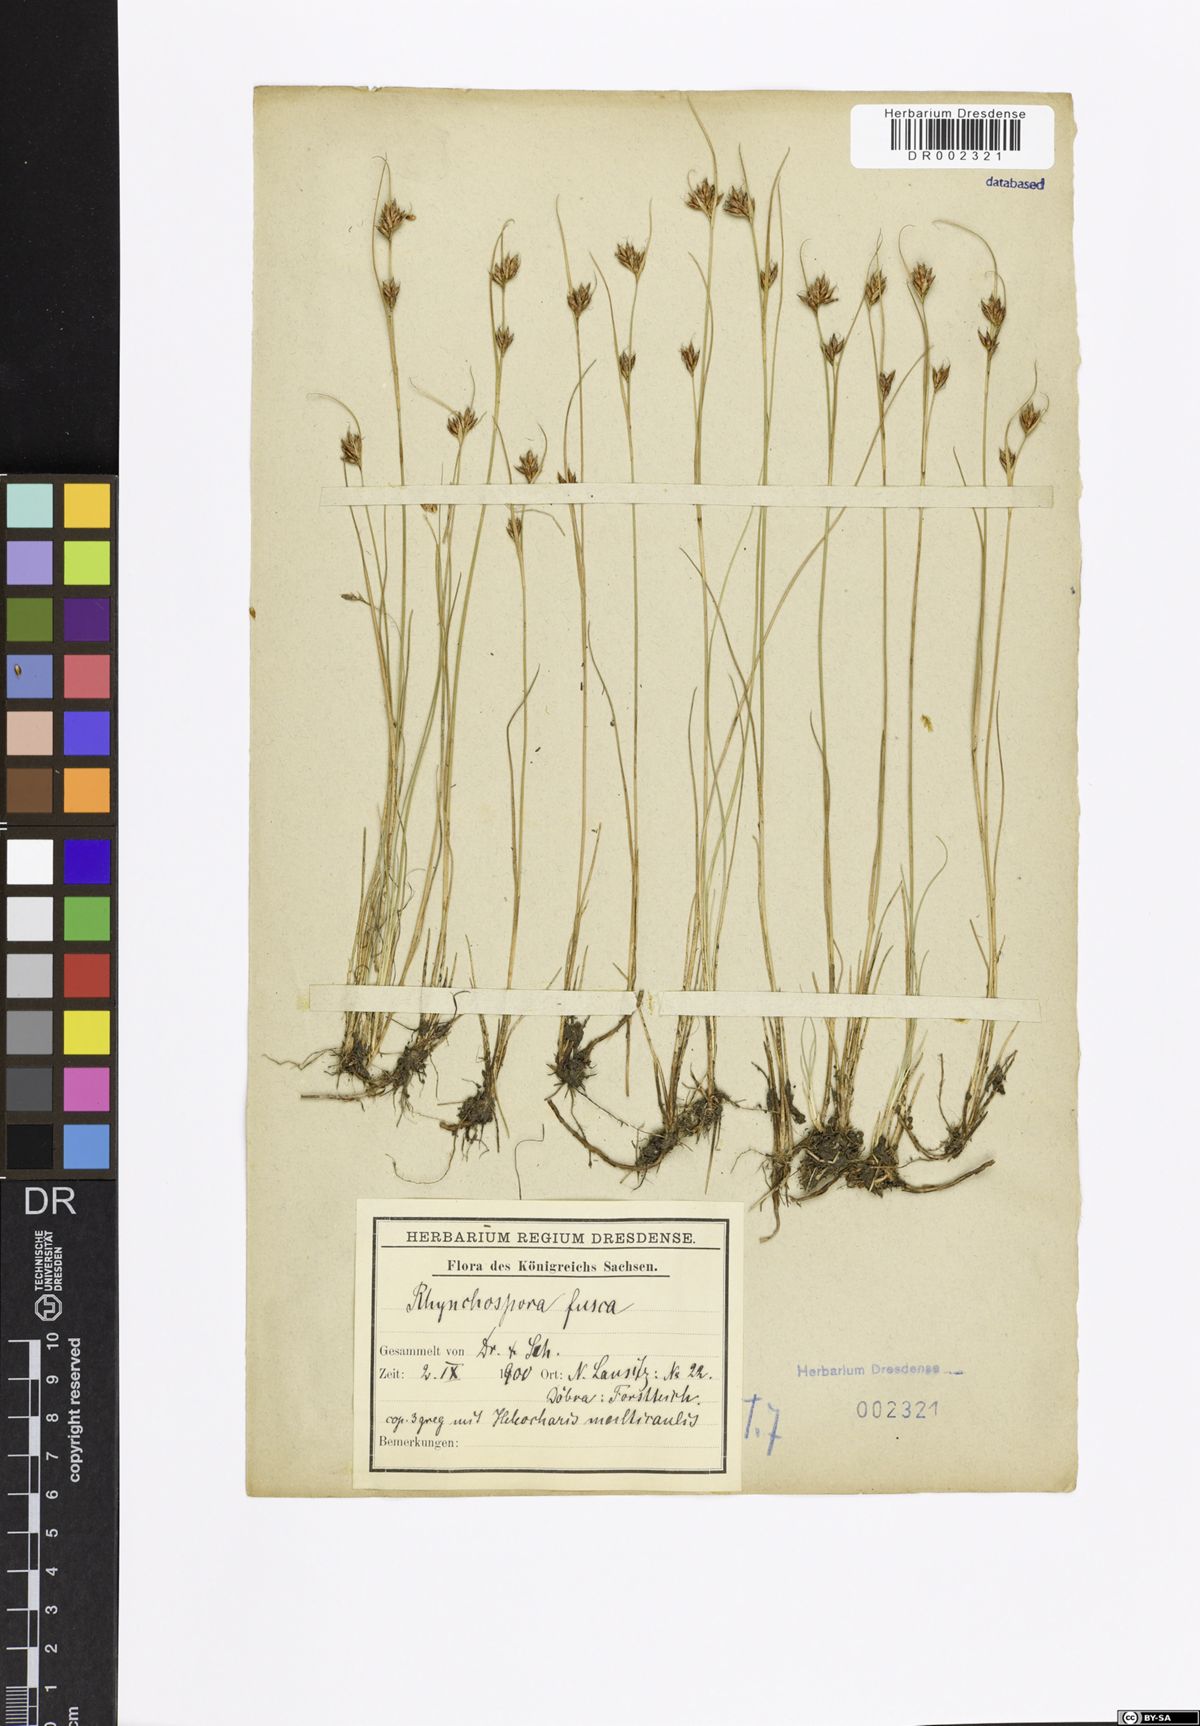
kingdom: Plantae
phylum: Tracheophyta
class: Liliopsida
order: Poales
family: Cyperaceae
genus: Rhynchospora
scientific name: Rhynchospora fusca
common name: Brown beak-sedge
